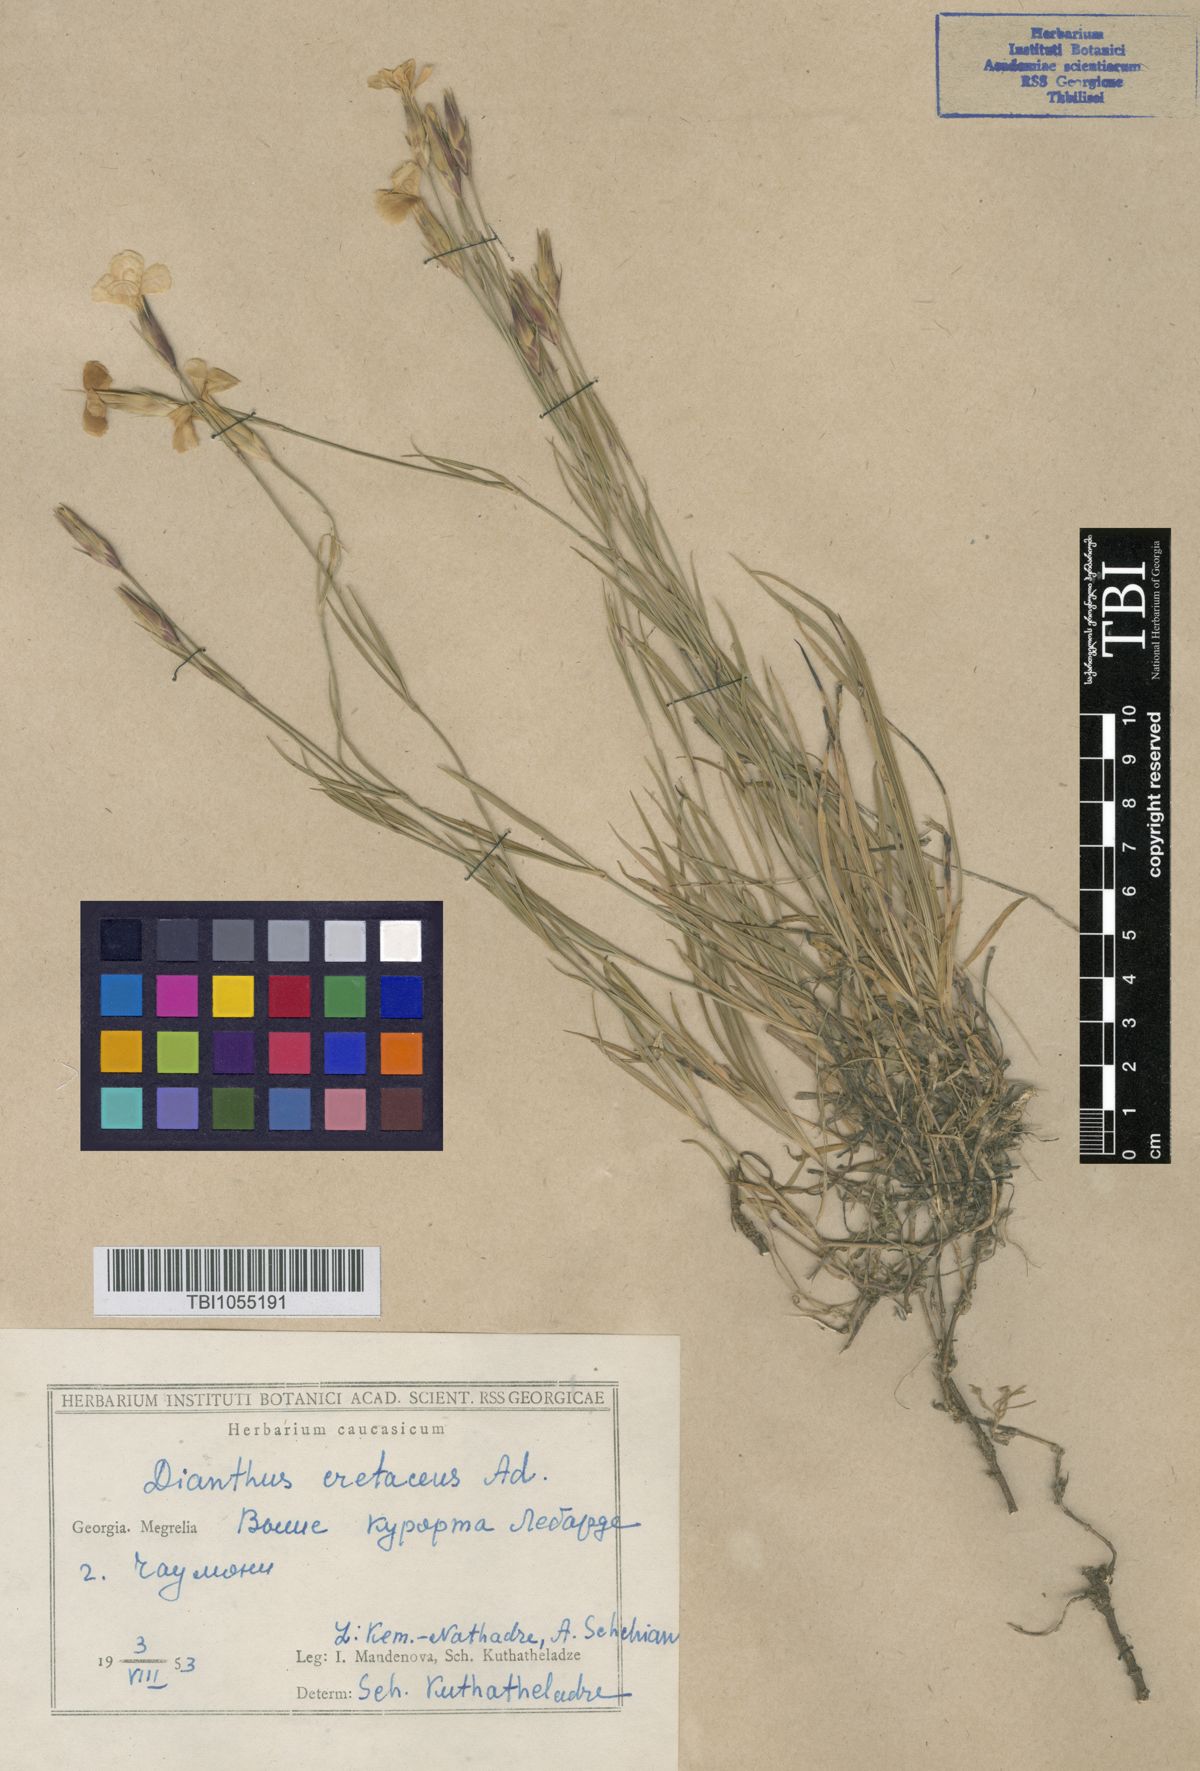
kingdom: Plantae
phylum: Tracheophyta
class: Magnoliopsida
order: Caryophyllales
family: Caryophyllaceae
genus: Dianthus
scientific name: Dianthus cretaceus
